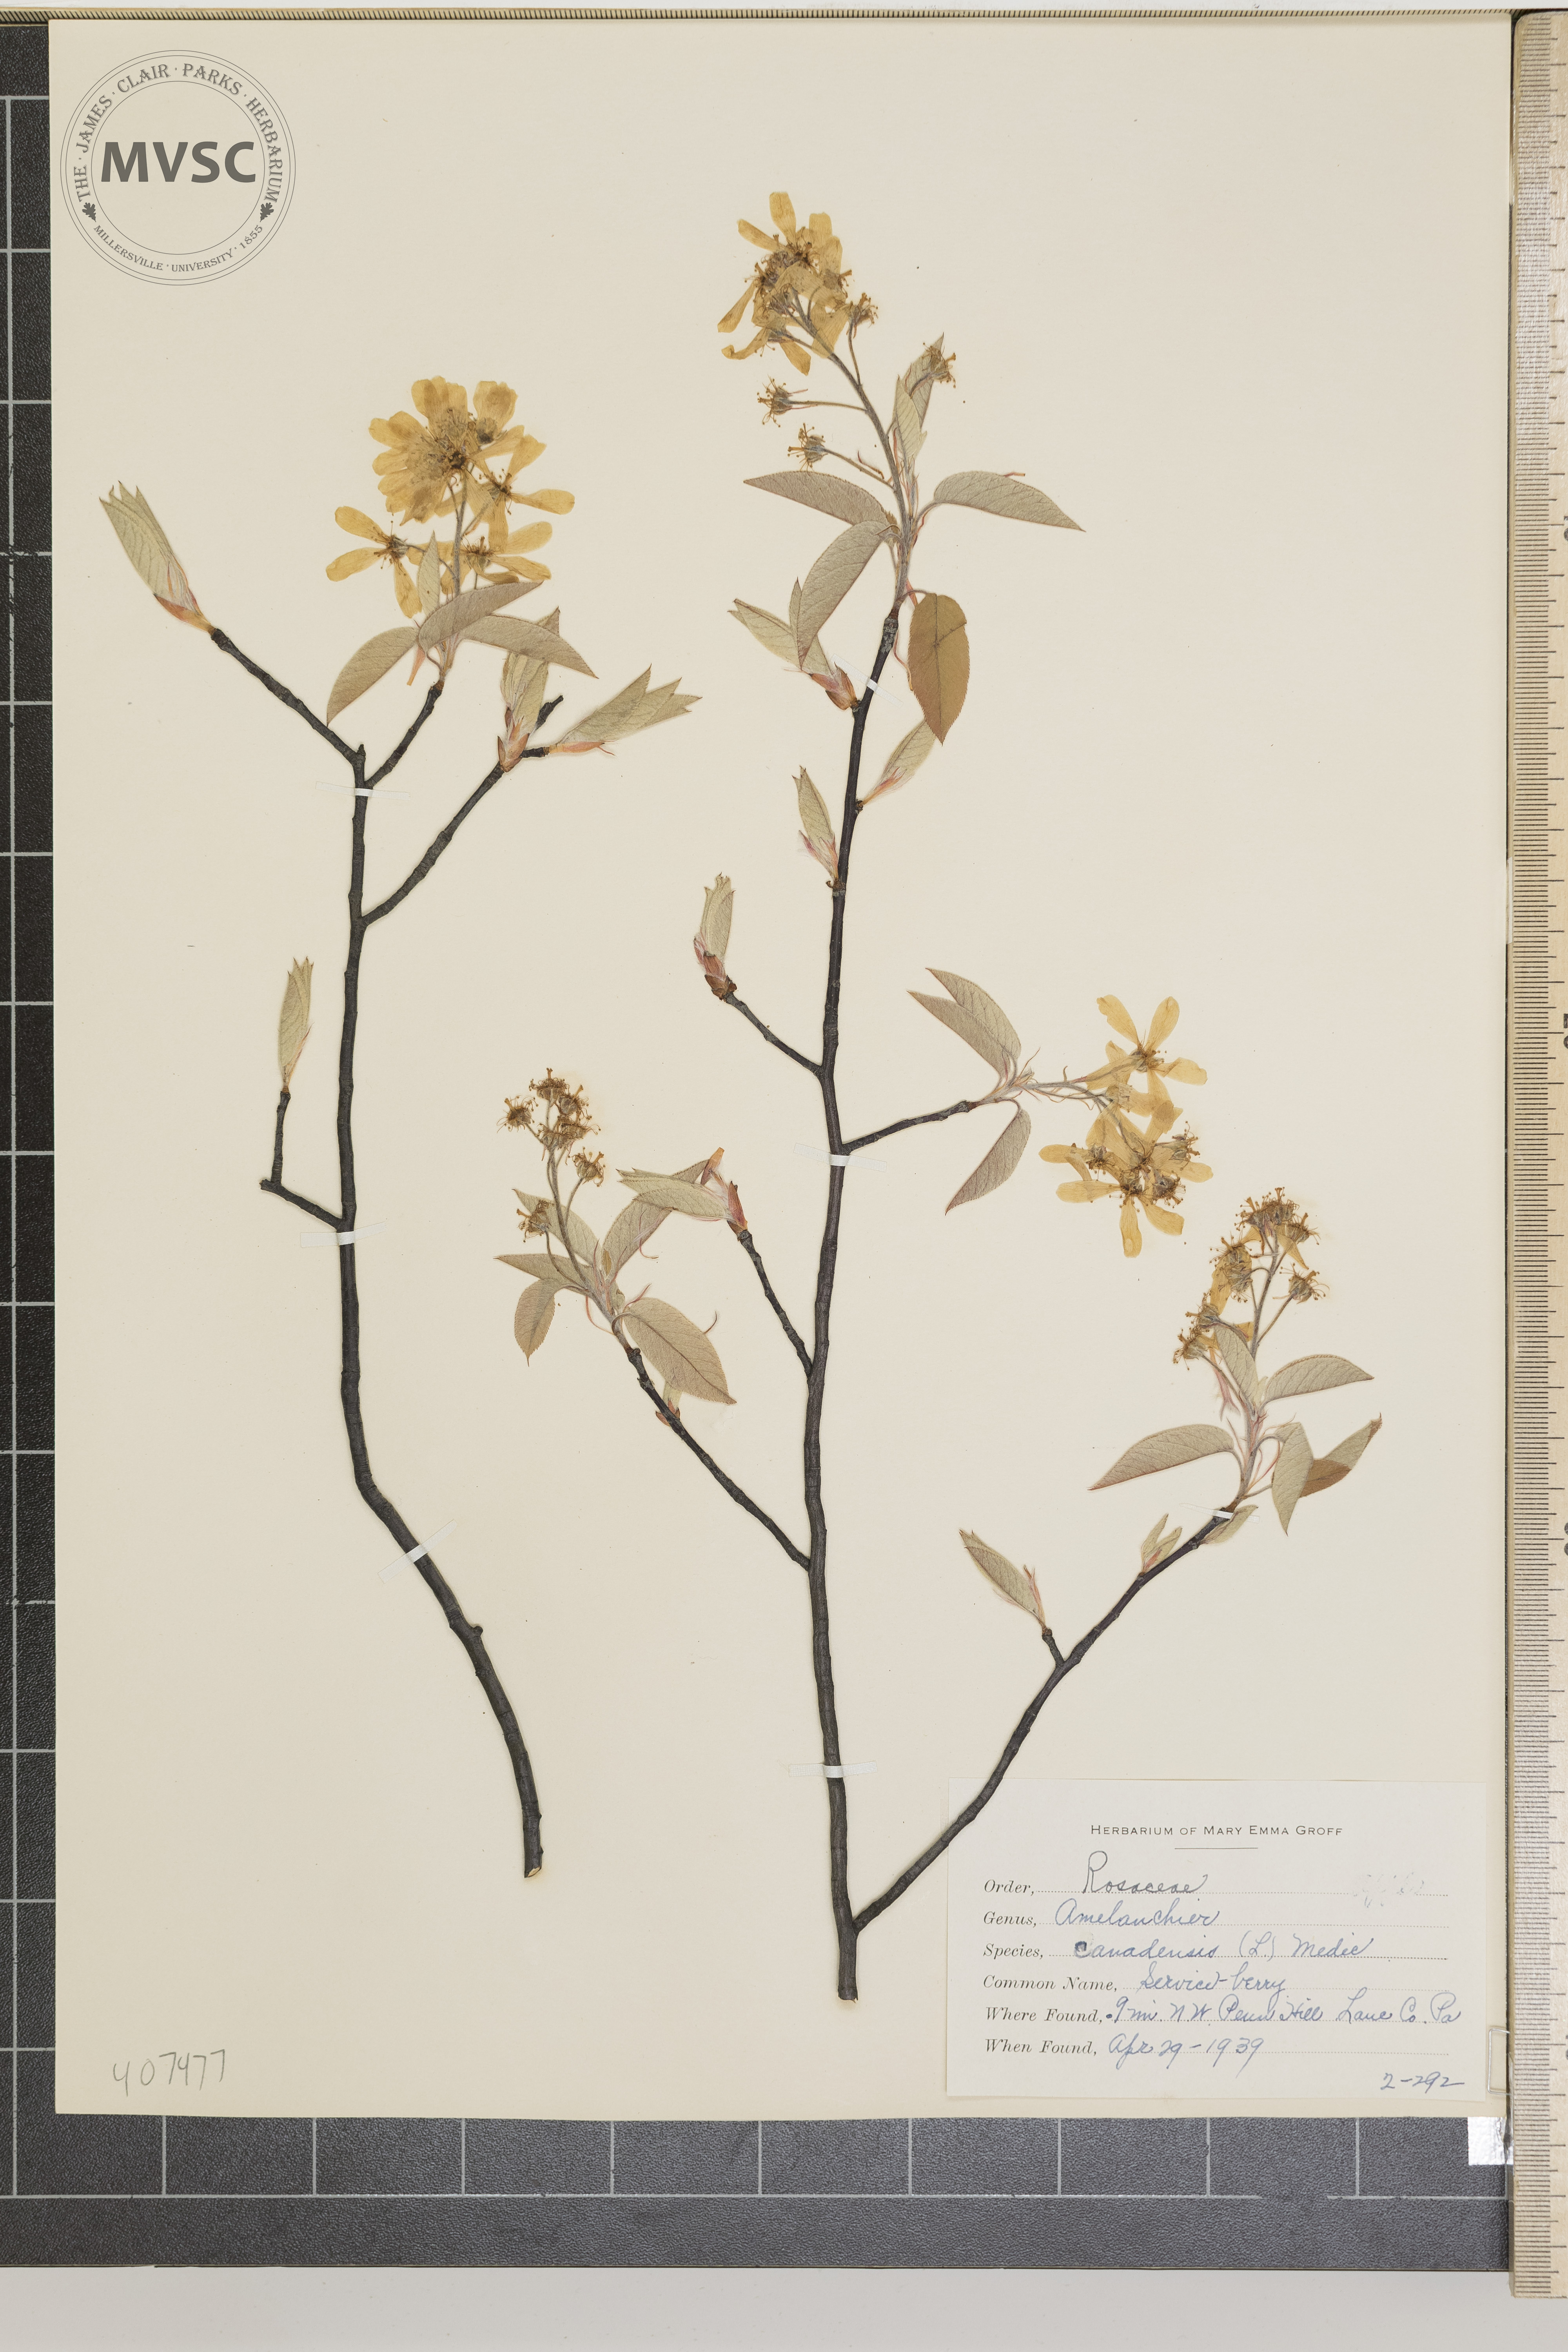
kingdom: Plantae
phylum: Tracheophyta
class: Magnoliopsida
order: Rosales
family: Rosaceae
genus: Amelanchier
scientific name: Amelanchier canadensis
